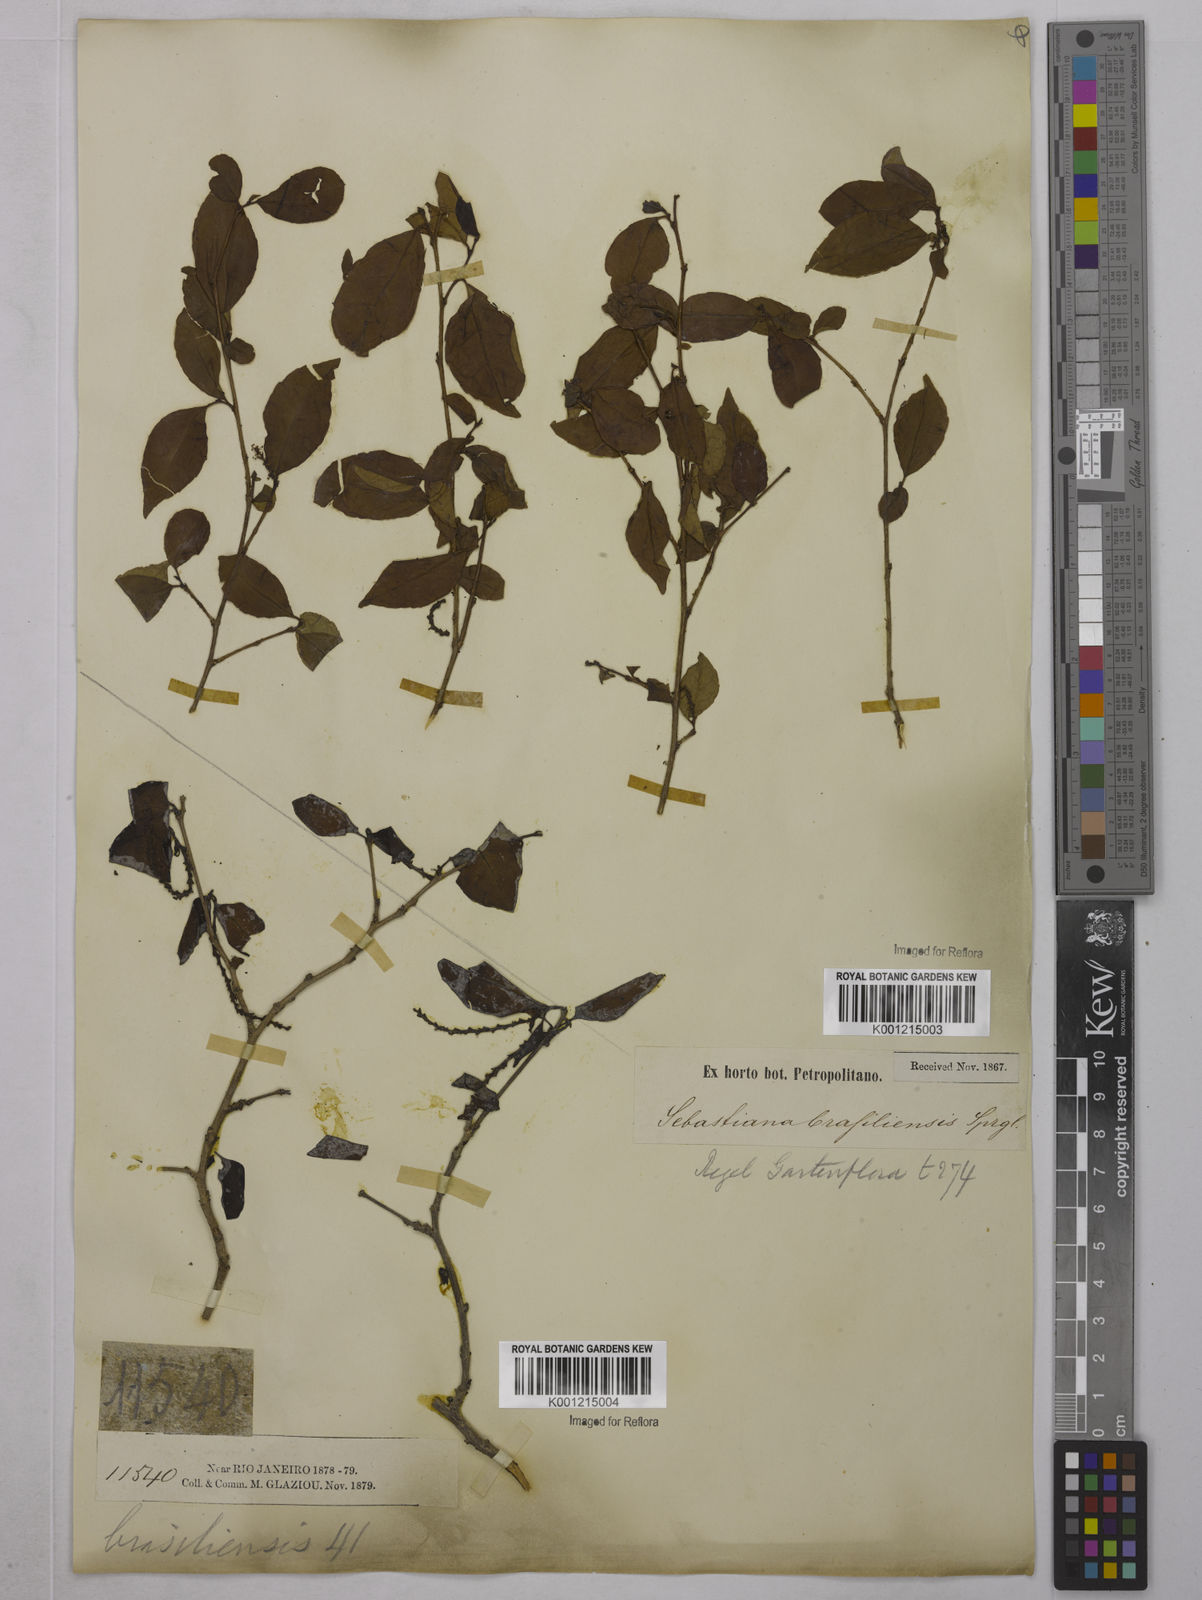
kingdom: Plantae
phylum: Tracheophyta
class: Magnoliopsida
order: Malpighiales
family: Euphorbiaceae
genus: Sebastiania
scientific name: Sebastiania brasiliensis
